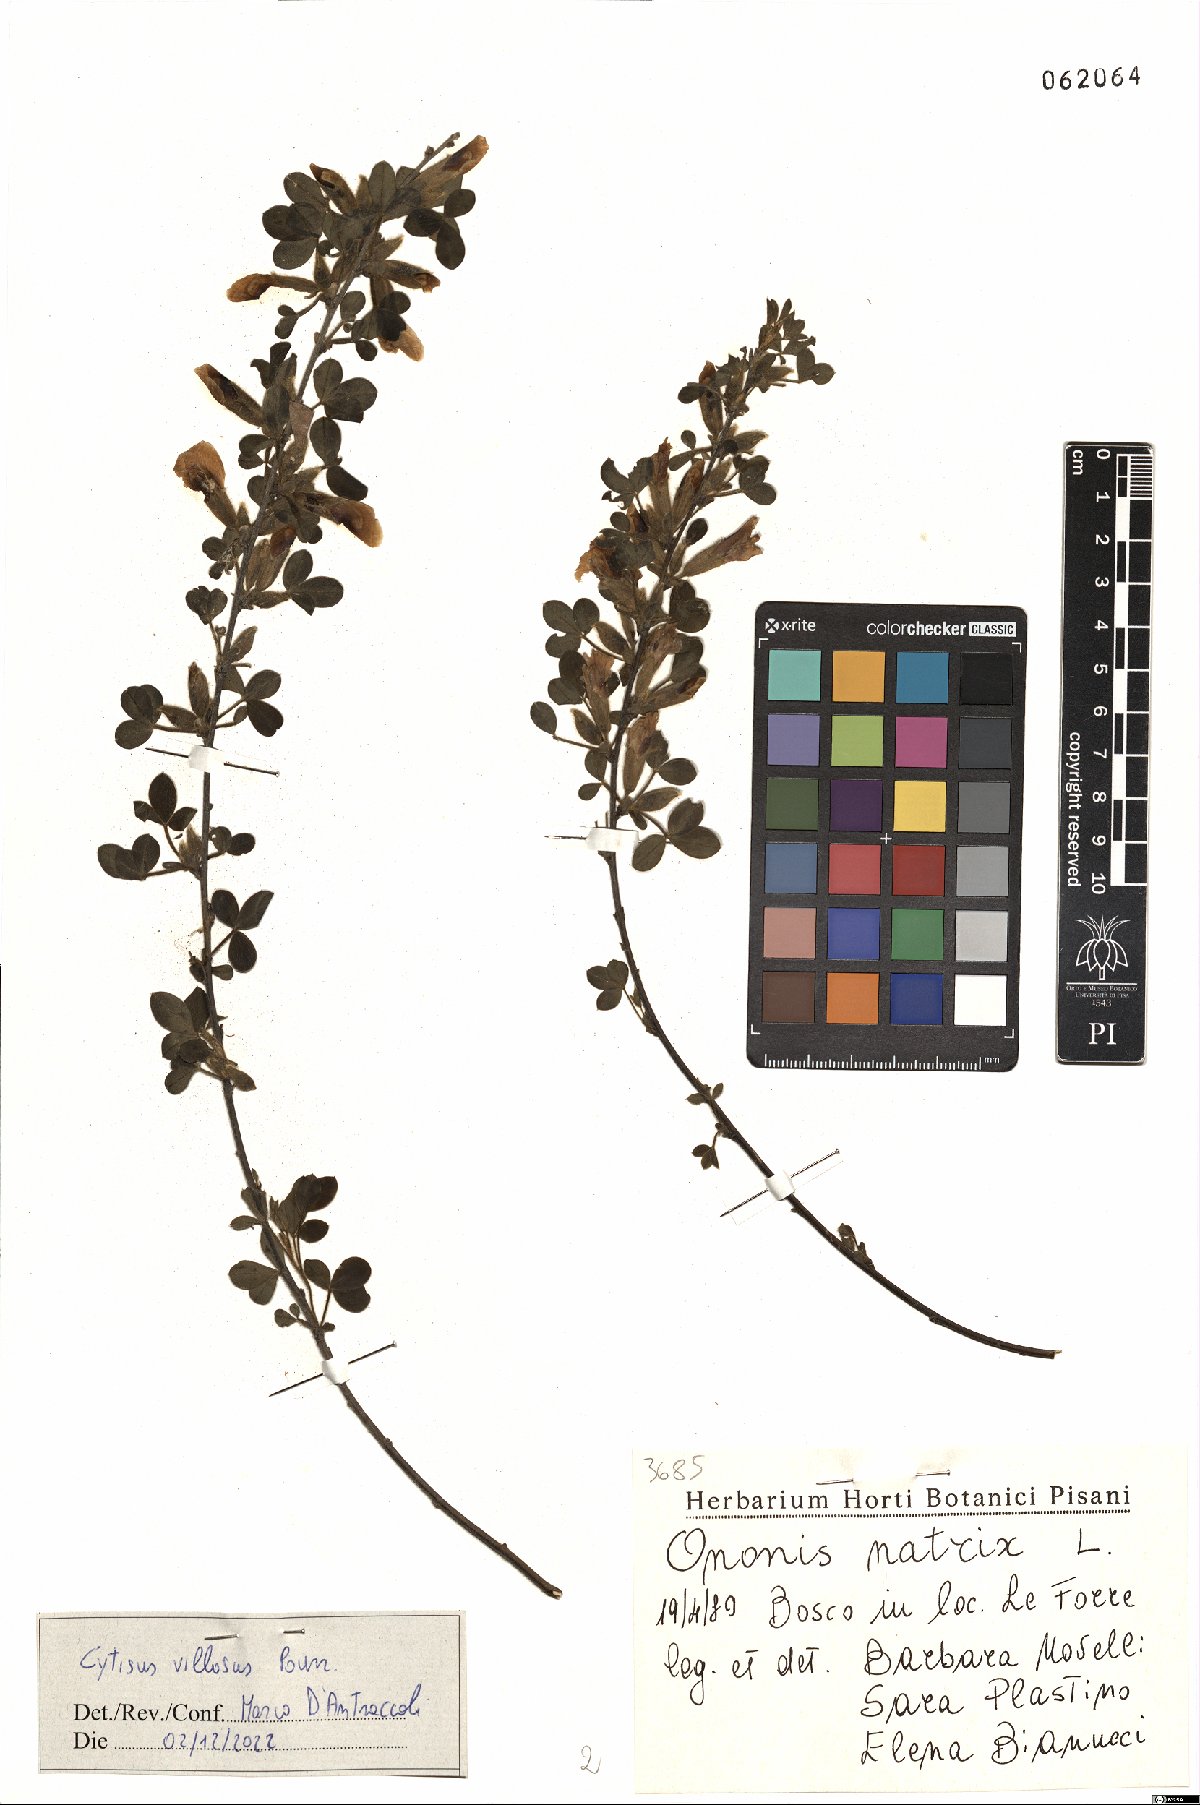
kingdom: Plantae
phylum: Tracheophyta
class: Magnoliopsida
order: Fabales
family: Fabaceae
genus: Cytisus
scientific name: Cytisus villosus
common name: Hairybroom
